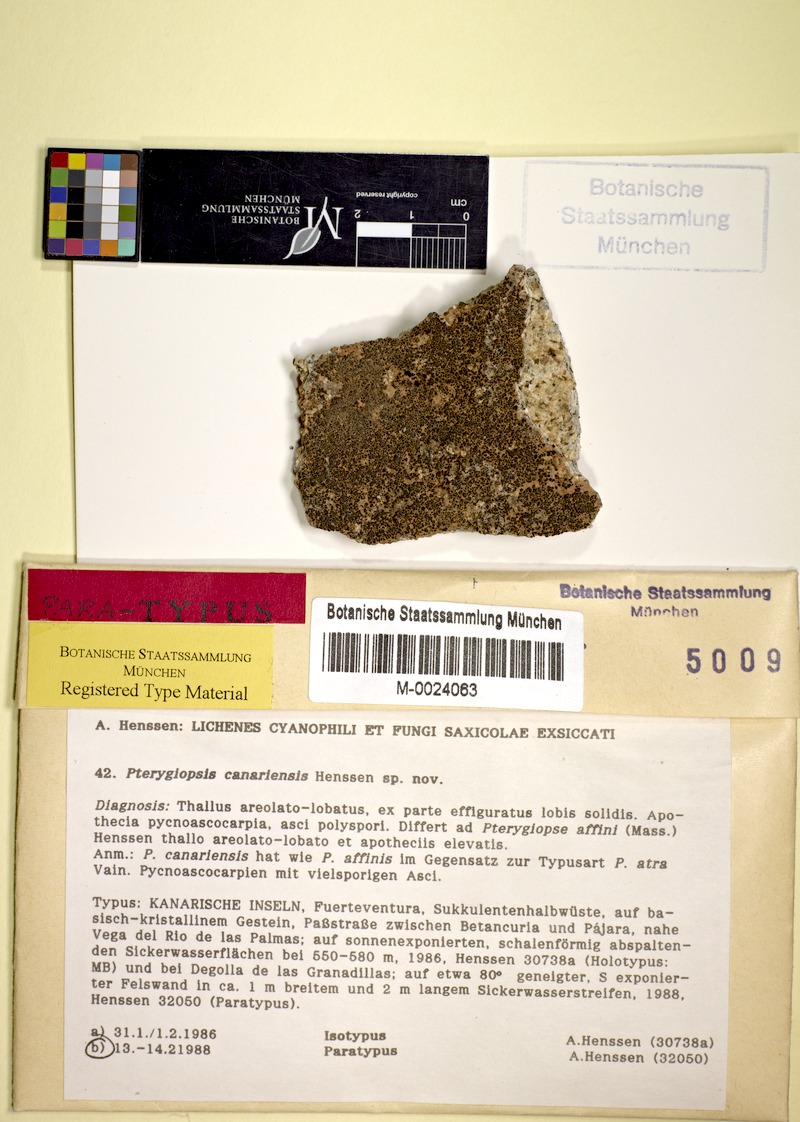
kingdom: Fungi
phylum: Ascomycota
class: Lichinomycetes
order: Lichinales
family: Lichinaceae
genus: Pterygiopsis
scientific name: Pterygiopsis canariensis
